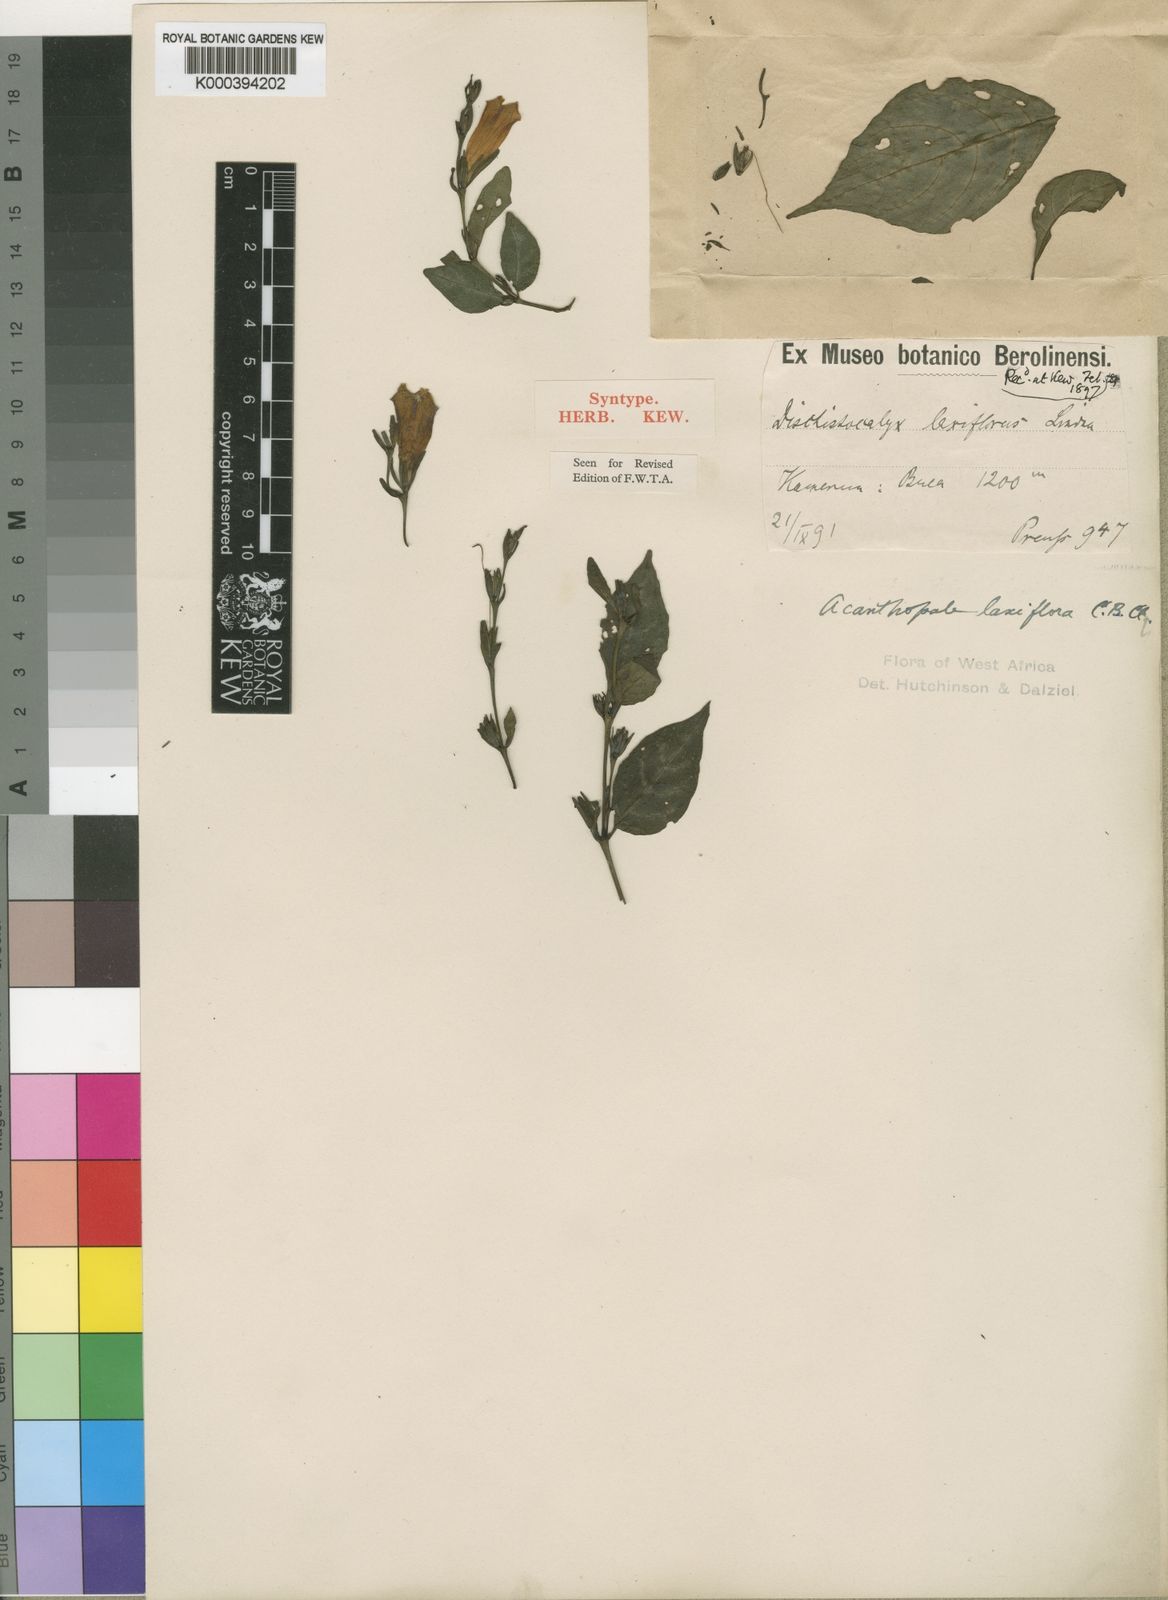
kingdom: Plantae
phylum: Tracheophyta
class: Magnoliopsida
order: Lamiales
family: Acanthaceae
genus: Acanthopale
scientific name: Acanthopale decempedalis
